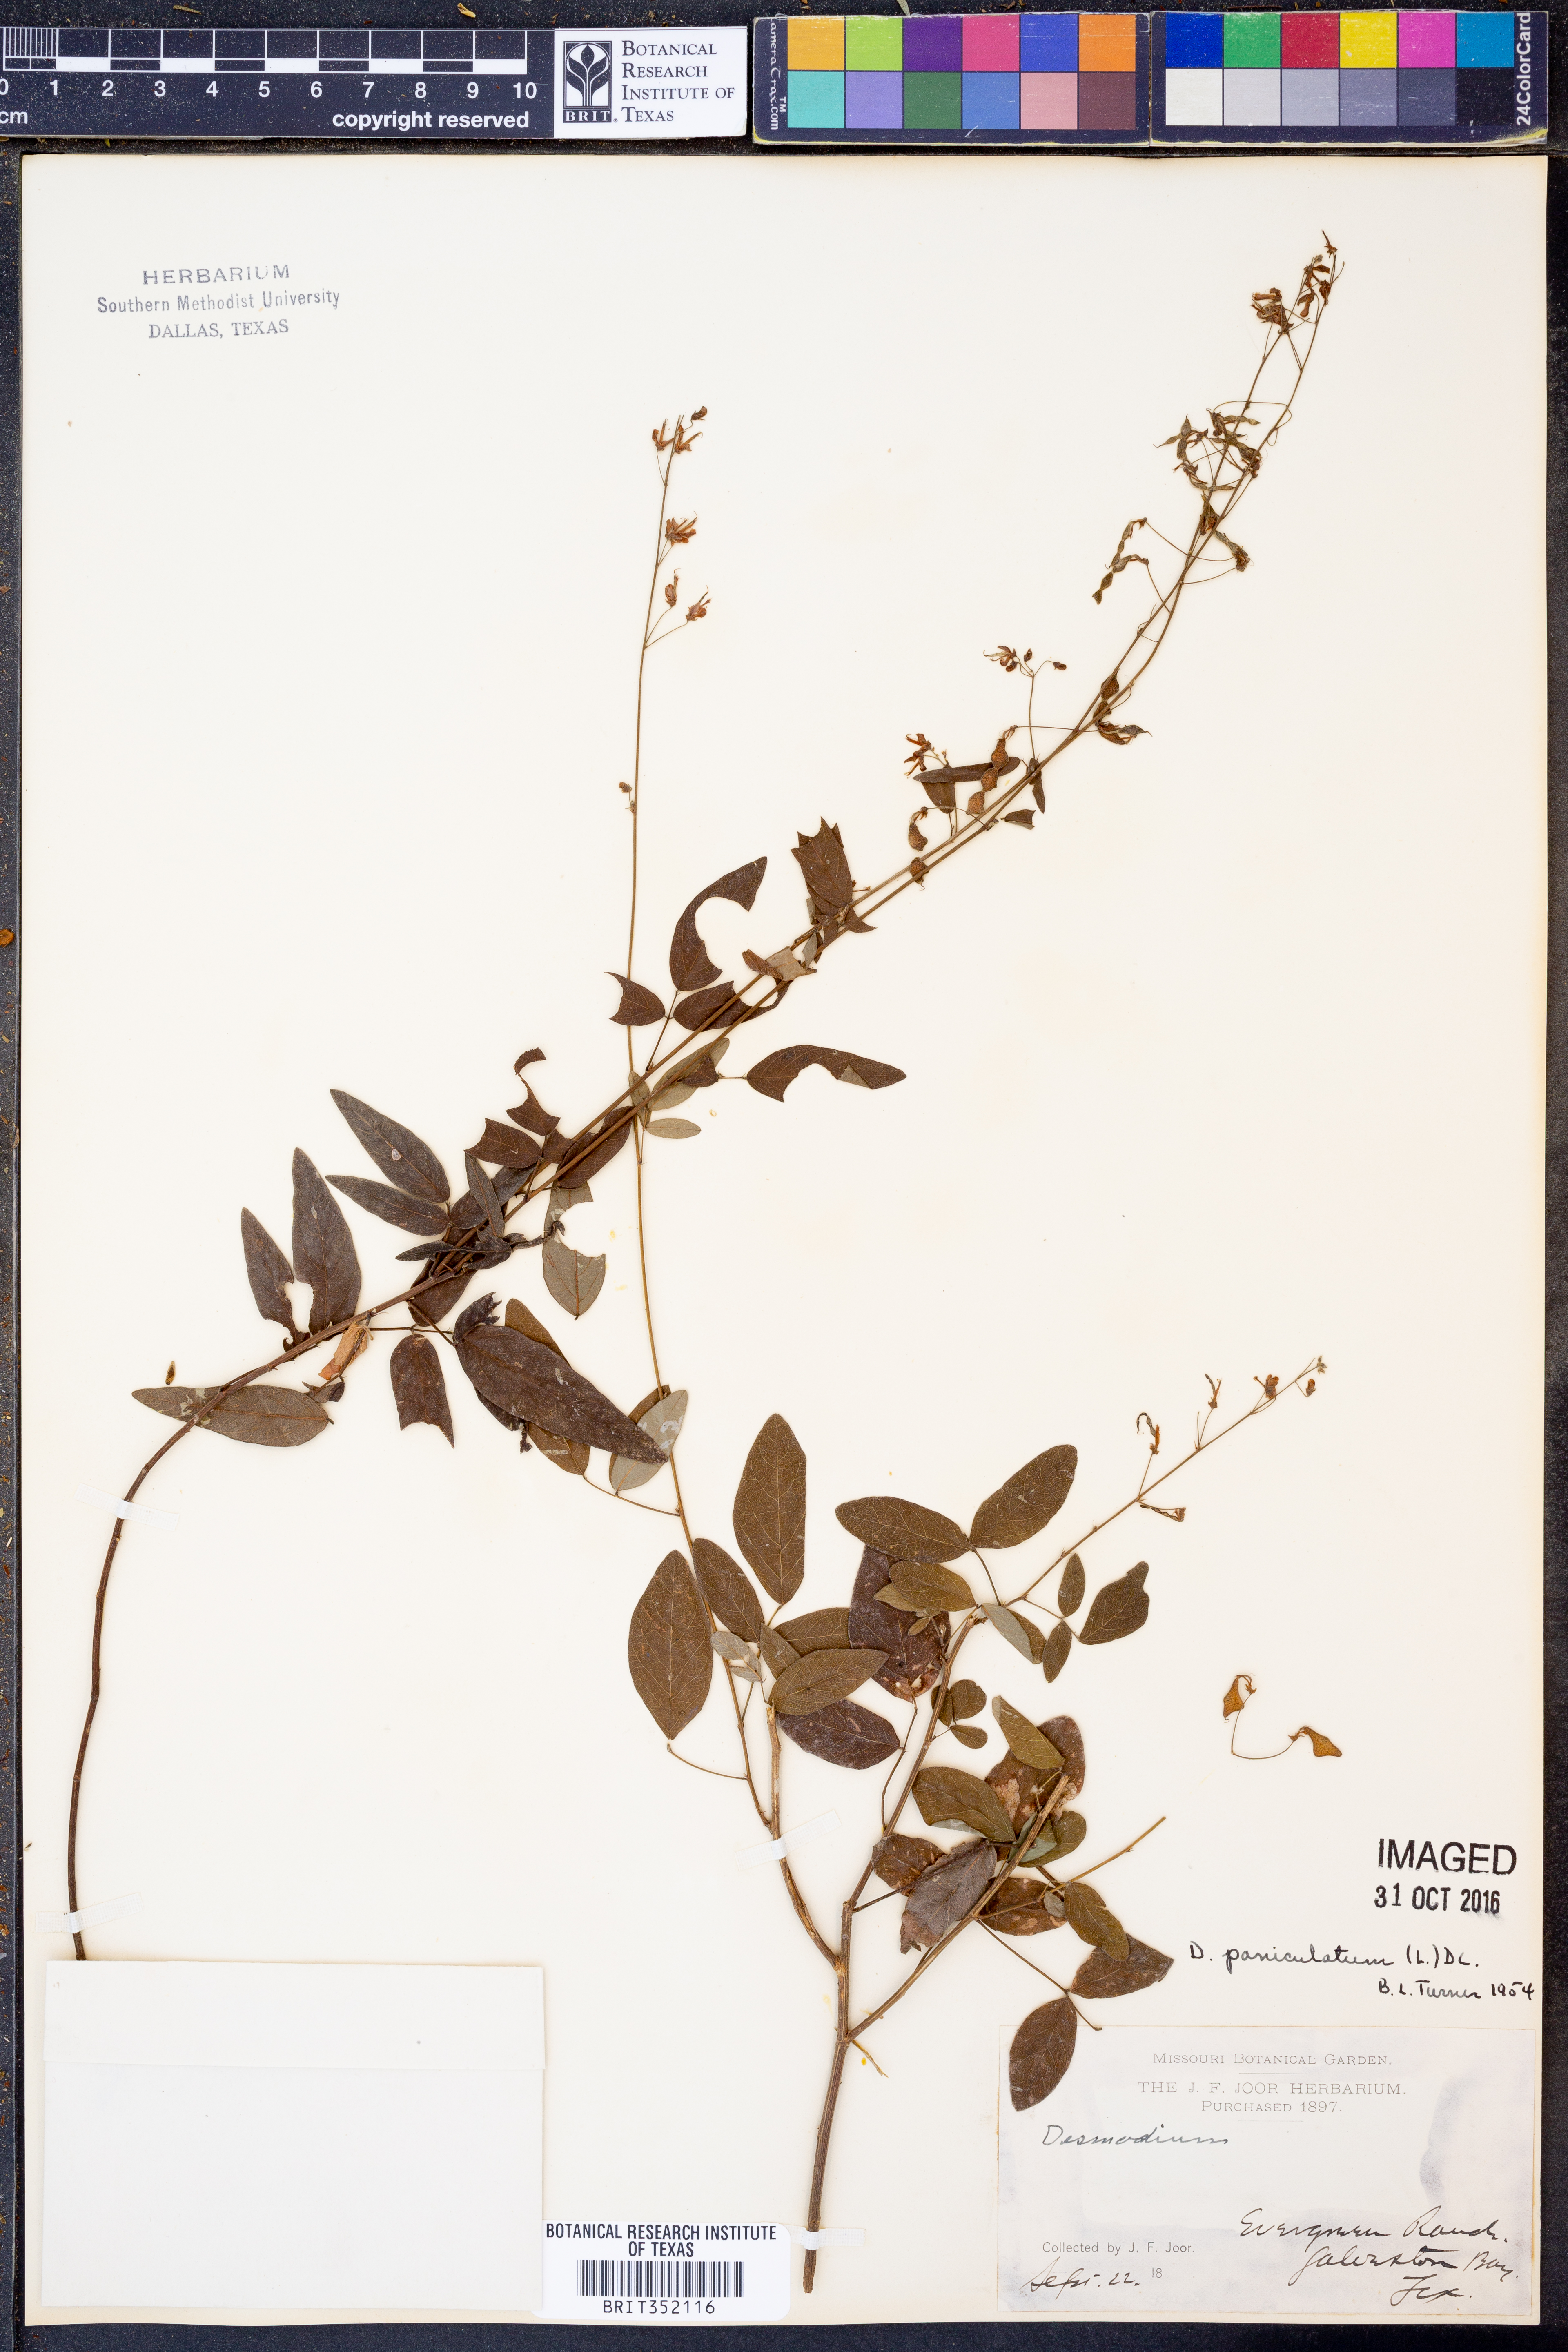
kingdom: Plantae
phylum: Tracheophyta
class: Magnoliopsida
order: Fabales
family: Fabaceae
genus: Hylodesmum
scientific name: Hylodesmum pauciflorum
